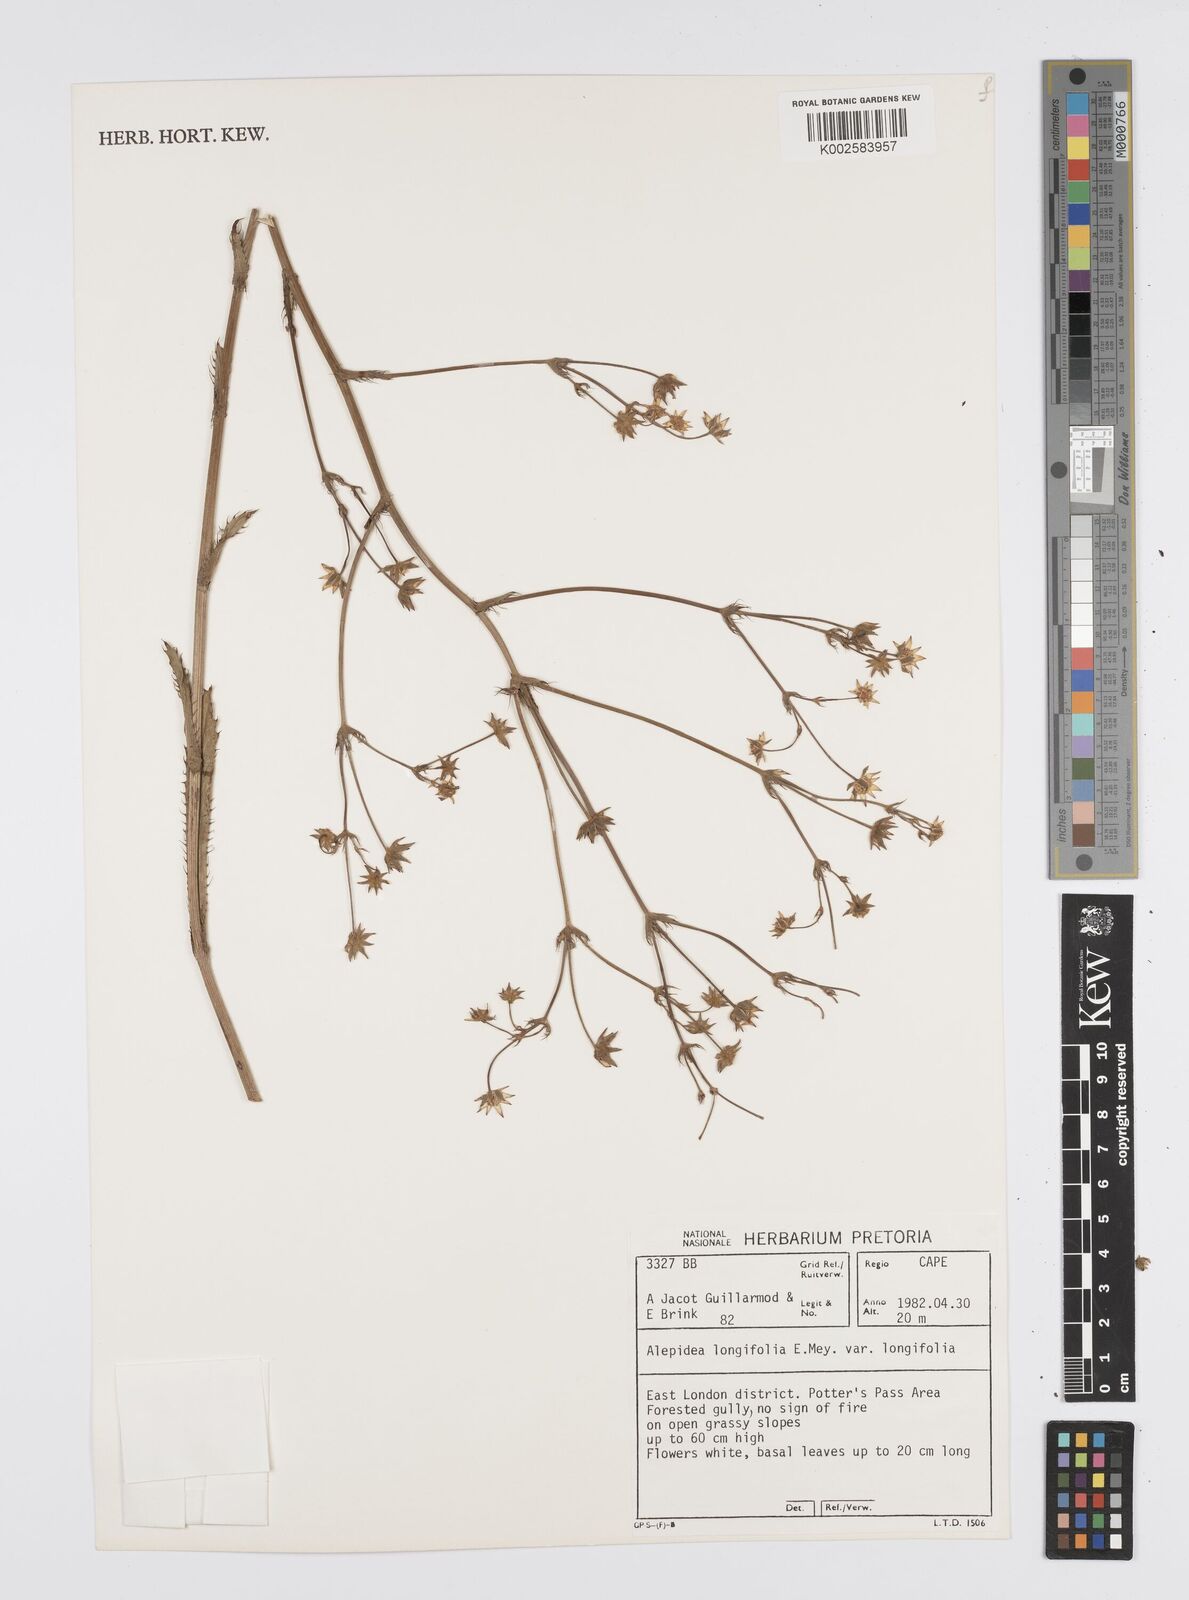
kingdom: Plantae
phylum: Tracheophyta
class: Magnoliopsida
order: Apiales
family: Apiaceae
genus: Alepidea
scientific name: Alepidea
